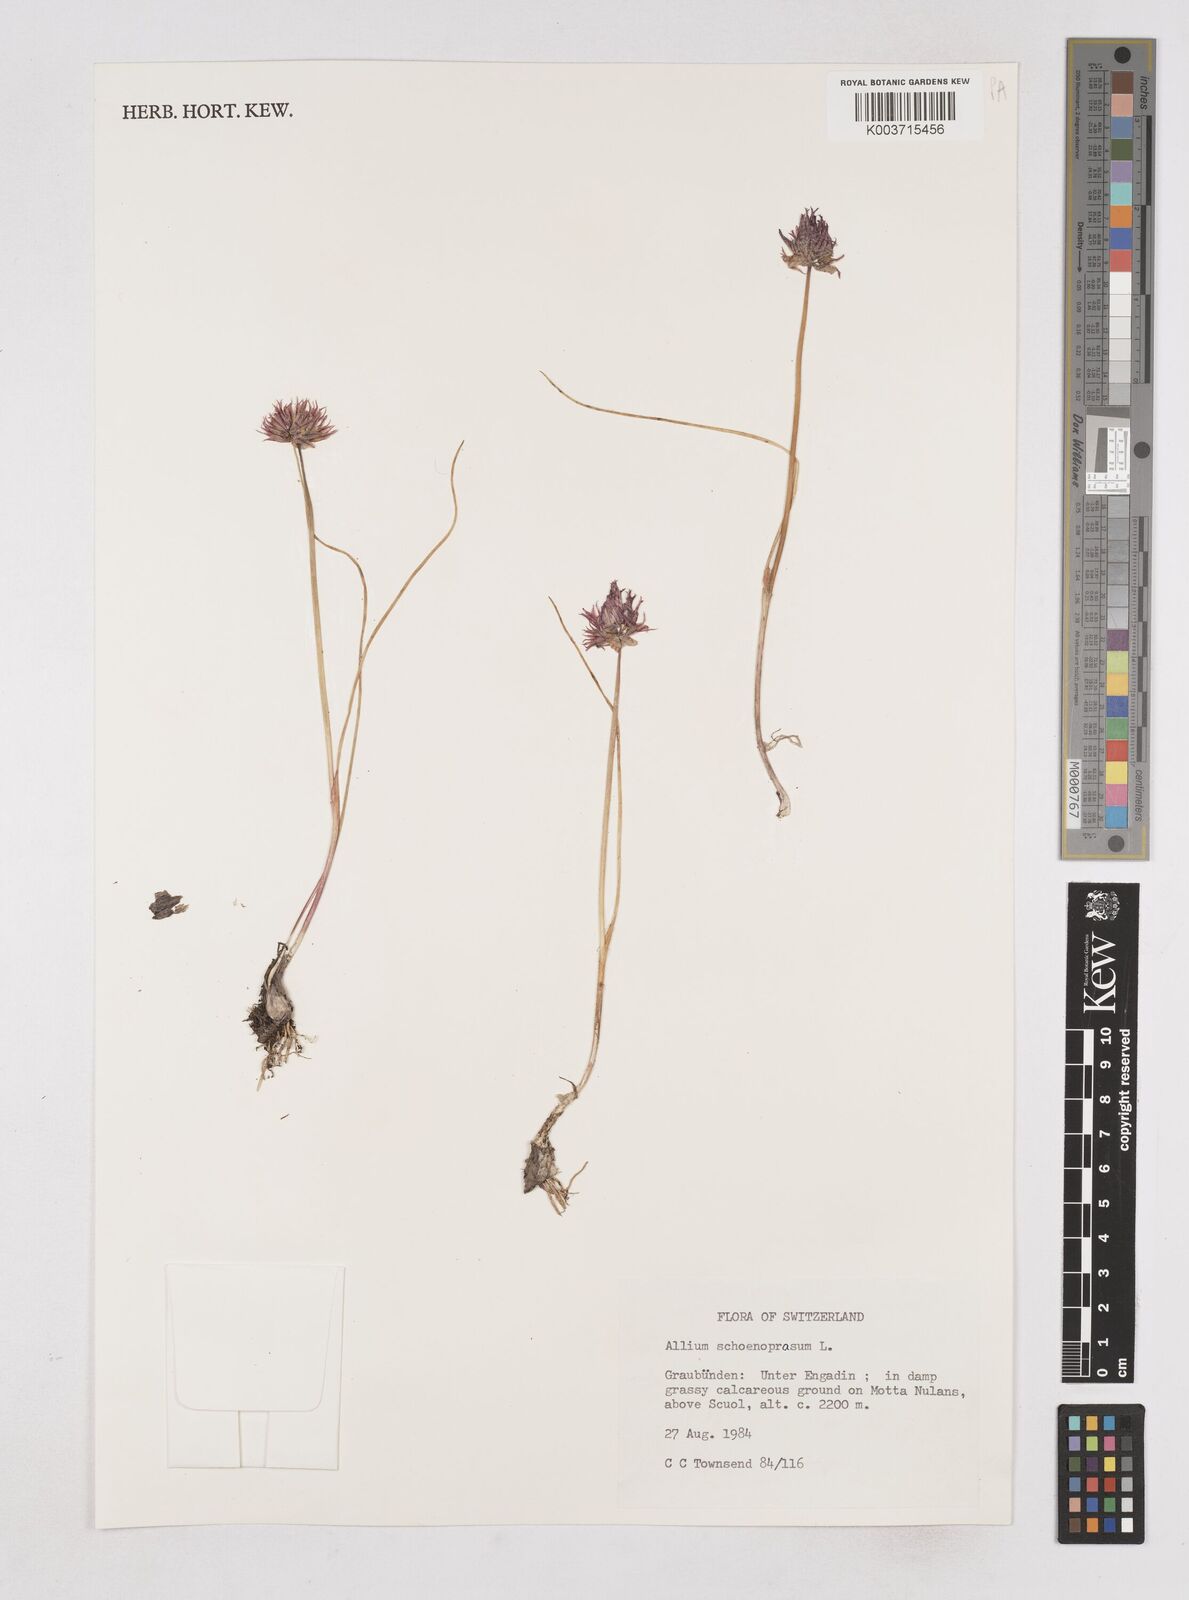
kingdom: Plantae
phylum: Tracheophyta
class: Liliopsida
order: Asparagales
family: Amaryllidaceae
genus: Allium
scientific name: Allium schoenoprasum
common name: Chives
